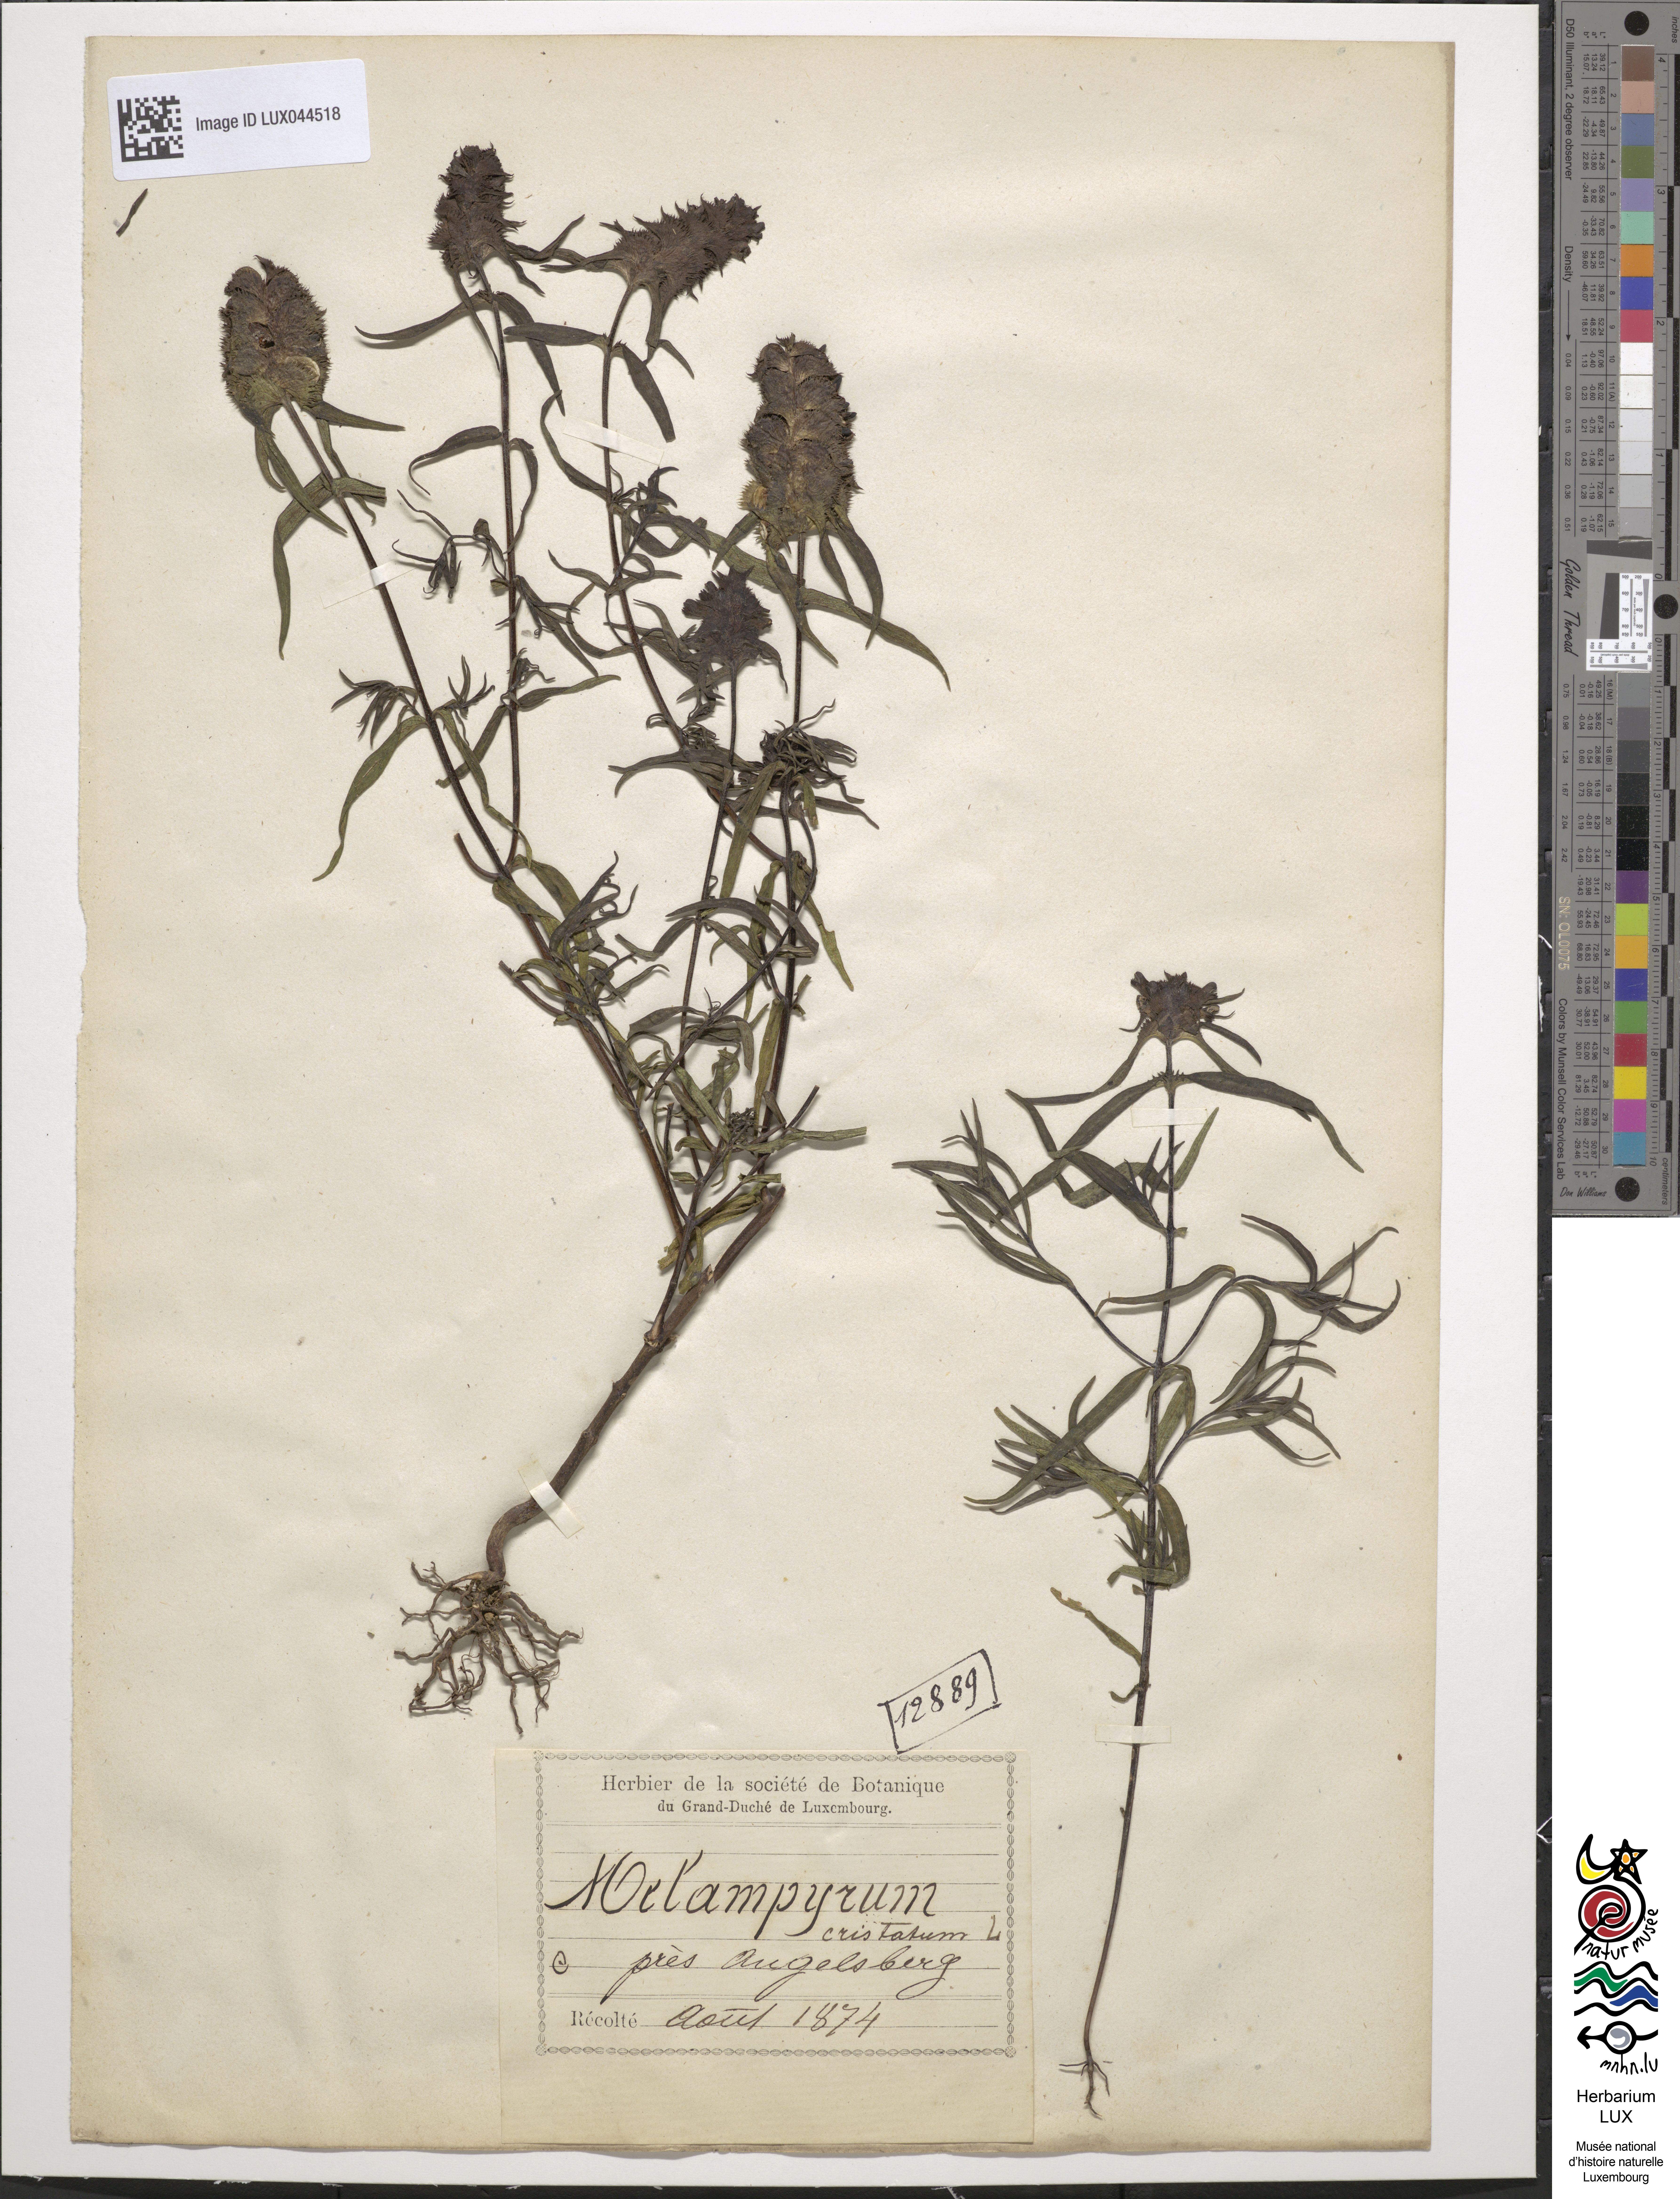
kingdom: Plantae
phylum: Tracheophyta
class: Magnoliopsida
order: Lamiales
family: Orobanchaceae
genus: Melampyrum
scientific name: Melampyrum cristatum
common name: Crested cow-wheat
